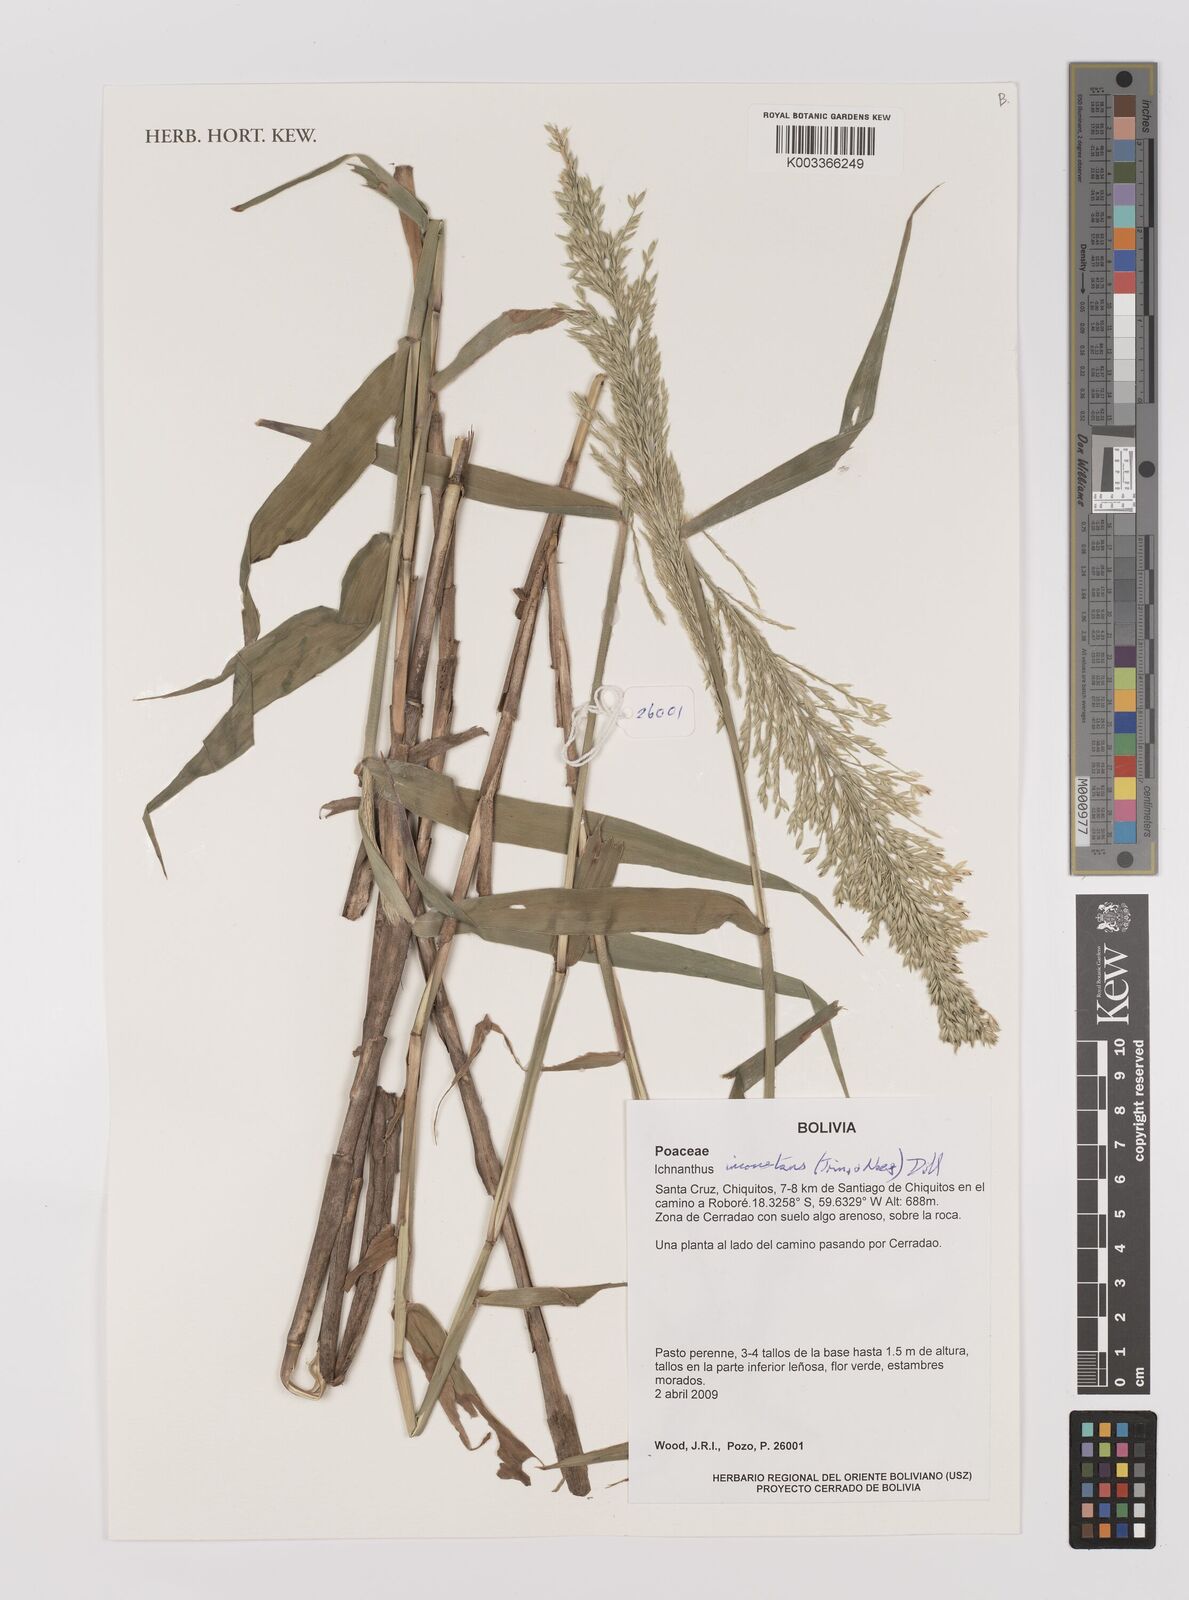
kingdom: Plantae
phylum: Tracheophyta
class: Liliopsida
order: Poales
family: Poaceae
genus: Ichnanthus
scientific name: Ichnanthus inconstans
